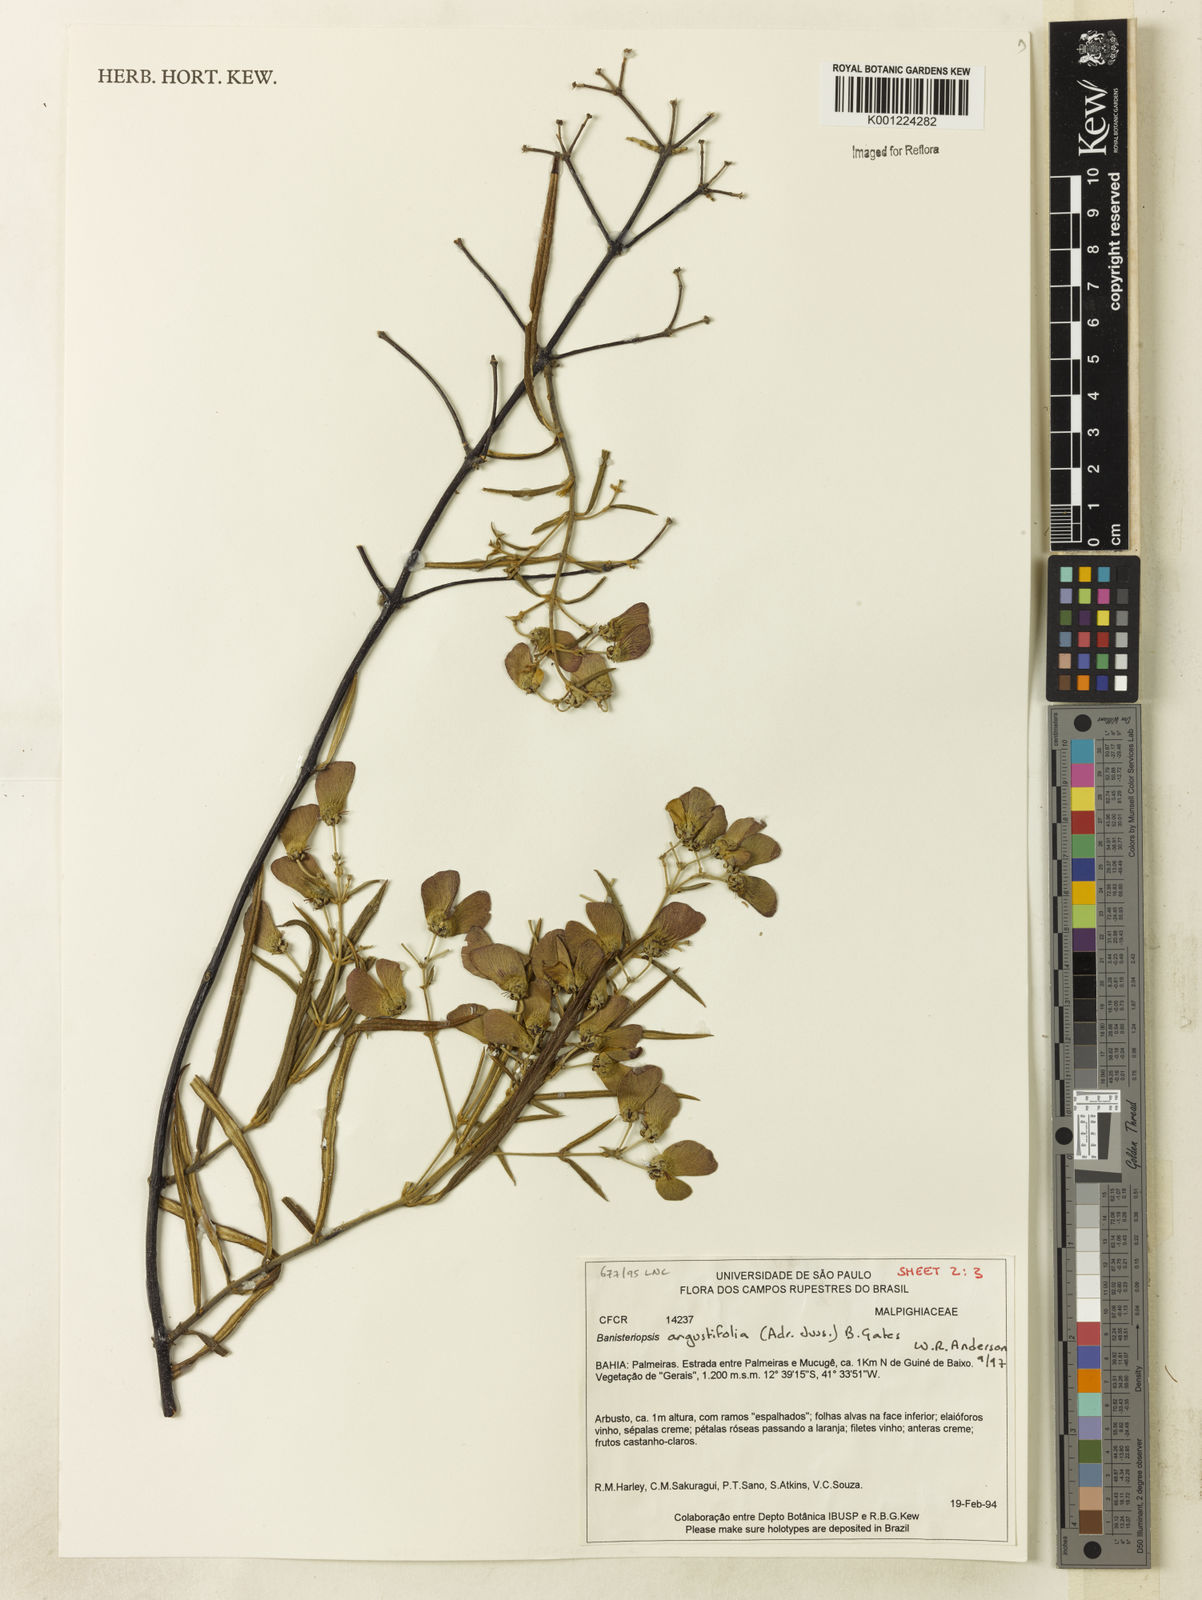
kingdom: Plantae
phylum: Tracheophyta
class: Magnoliopsida
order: Malpighiales
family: Malpighiaceae
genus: Banisteriopsis
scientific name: Banisteriopsis angustifolia
